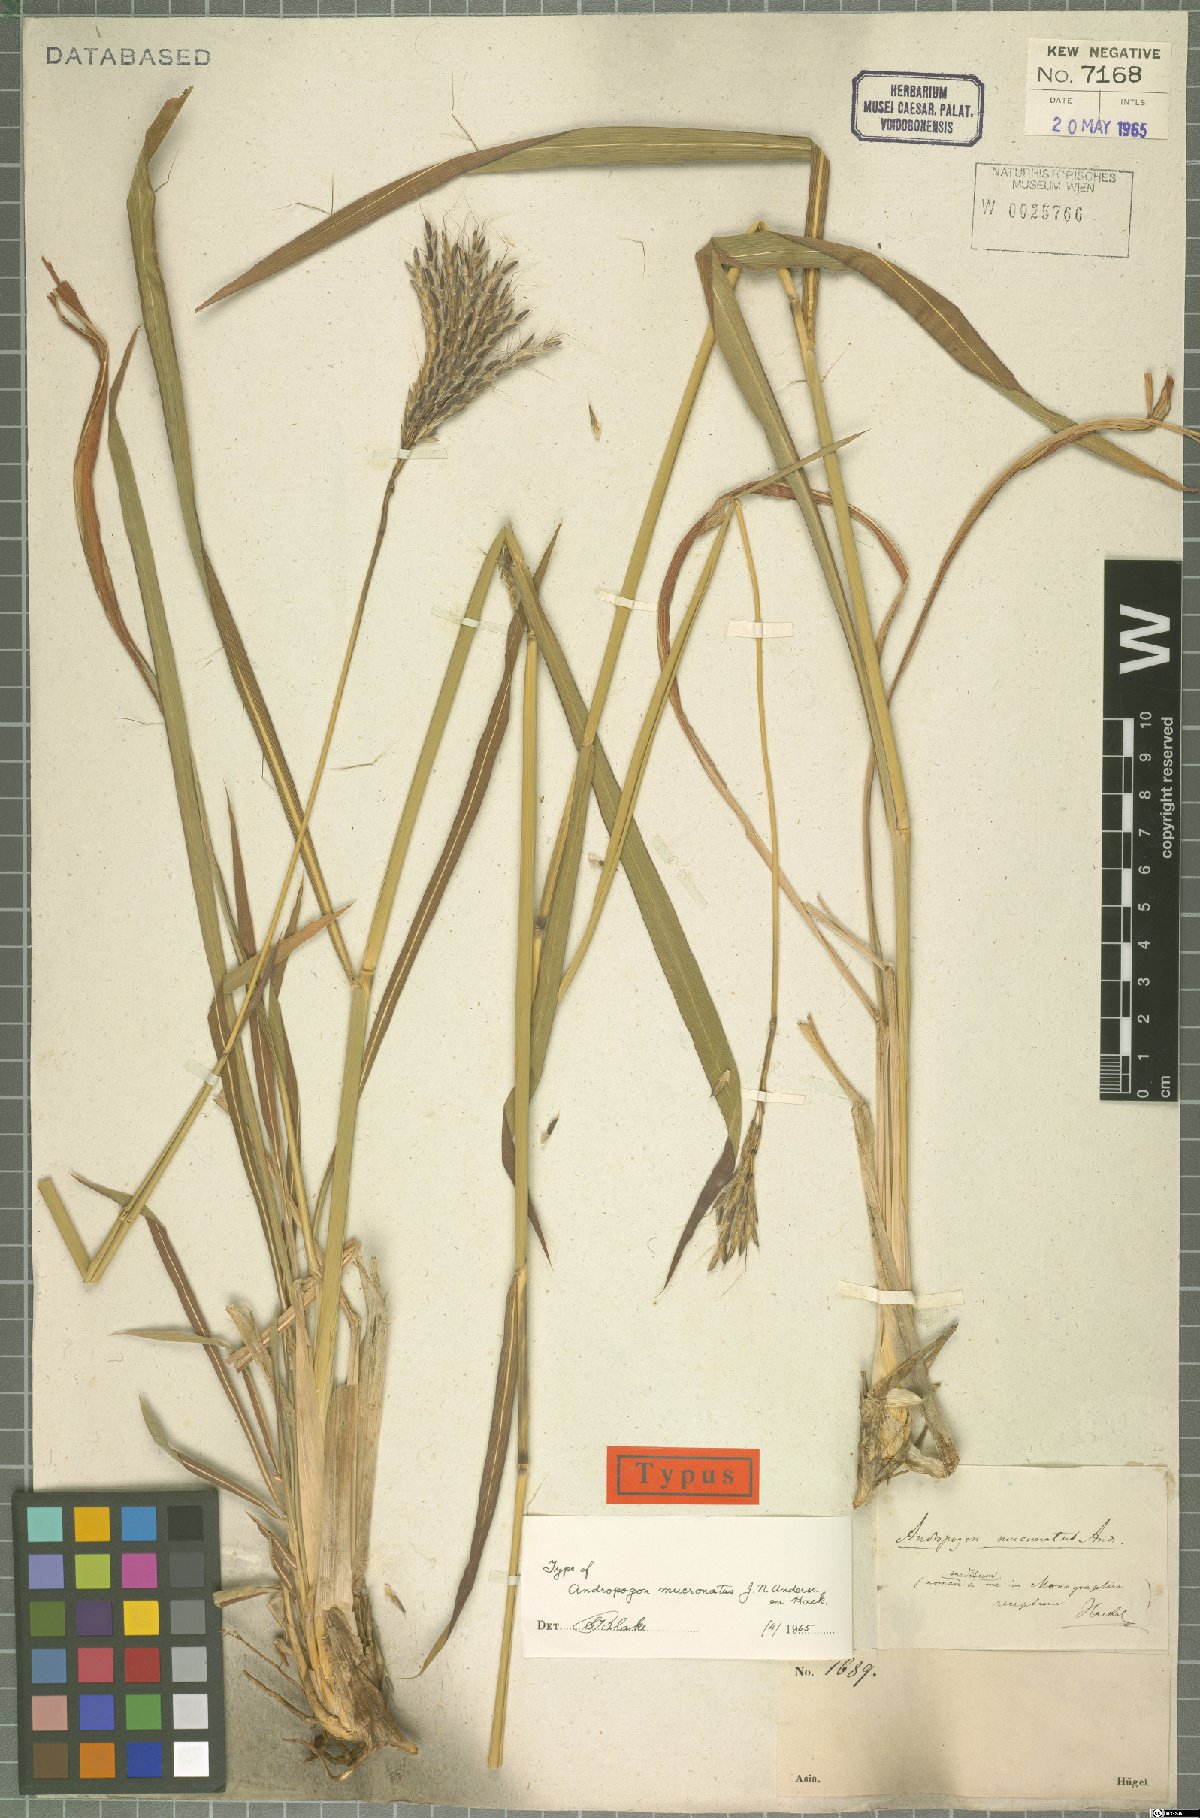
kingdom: Plantae
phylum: Tracheophyta
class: Liliopsida
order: Poales
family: Poaceae
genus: Andropogon
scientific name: Andropogon mucronatus
